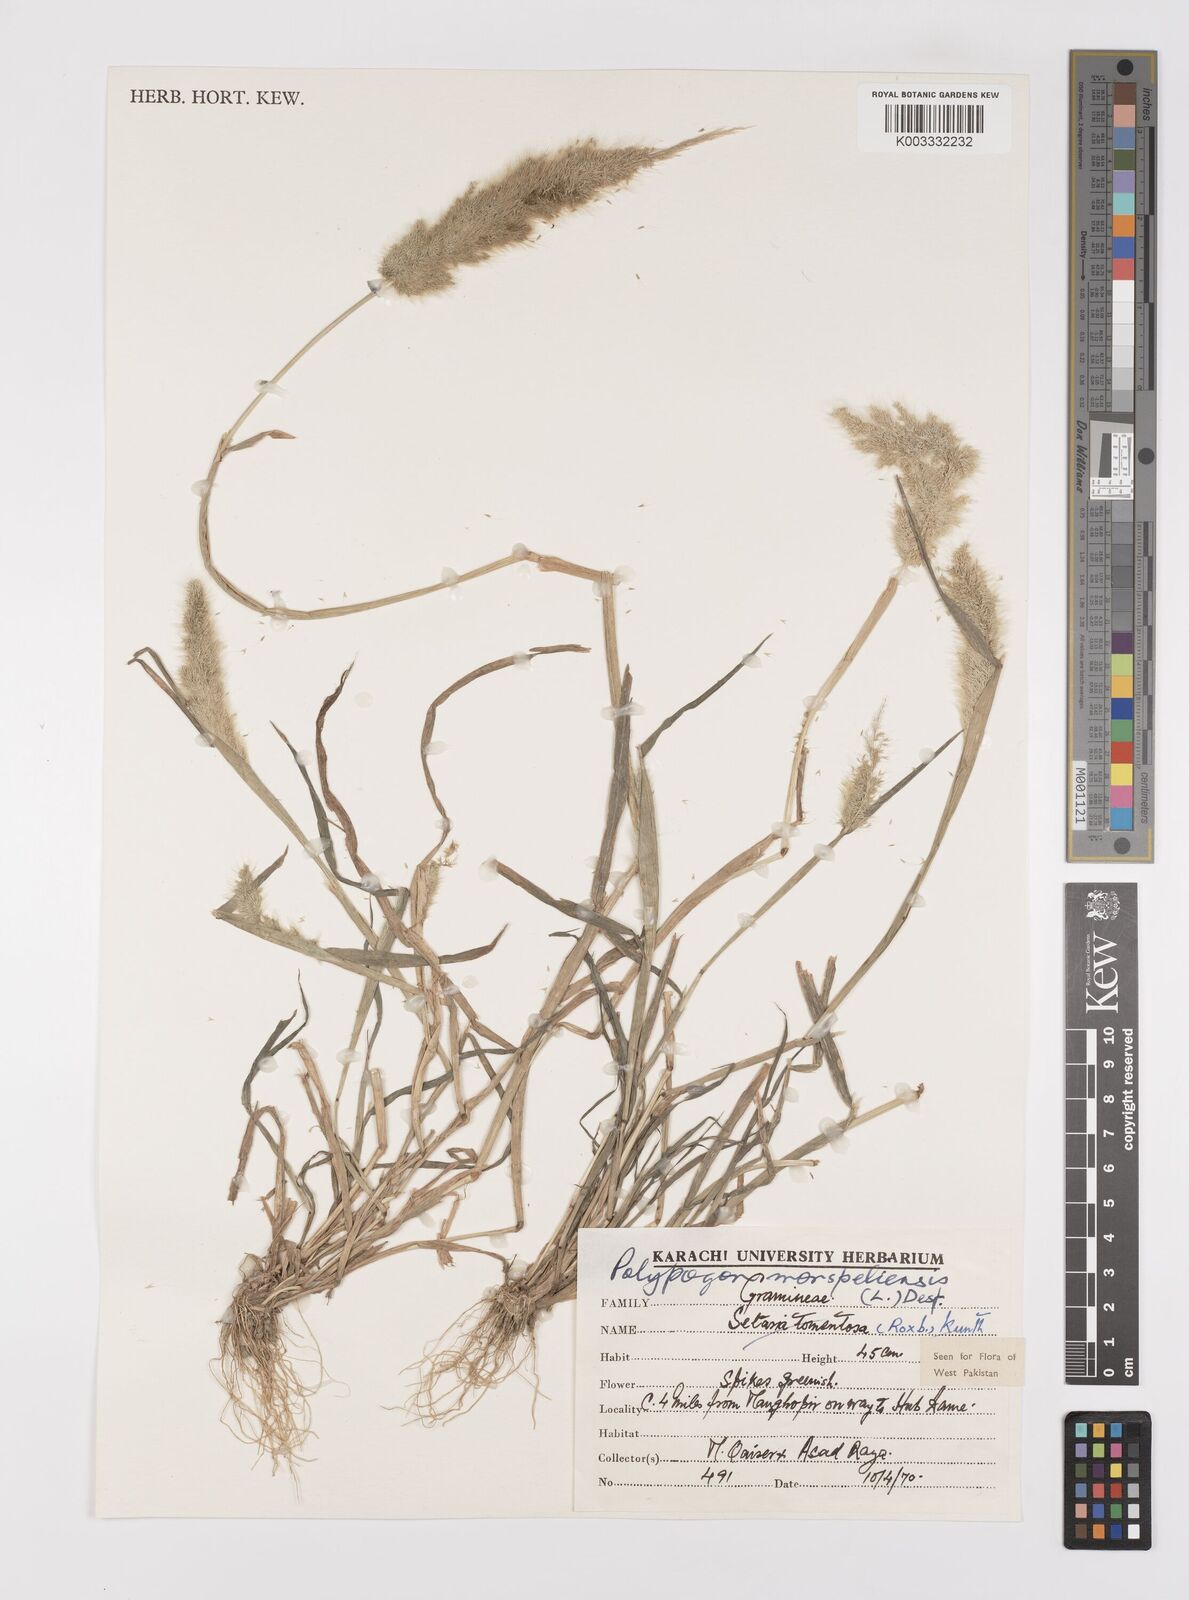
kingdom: Plantae
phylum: Tracheophyta
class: Liliopsida
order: Poales
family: Poaceae
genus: Polypogon
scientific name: Polypogon monspeliensis
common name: Annual rabbitsfoot grass
